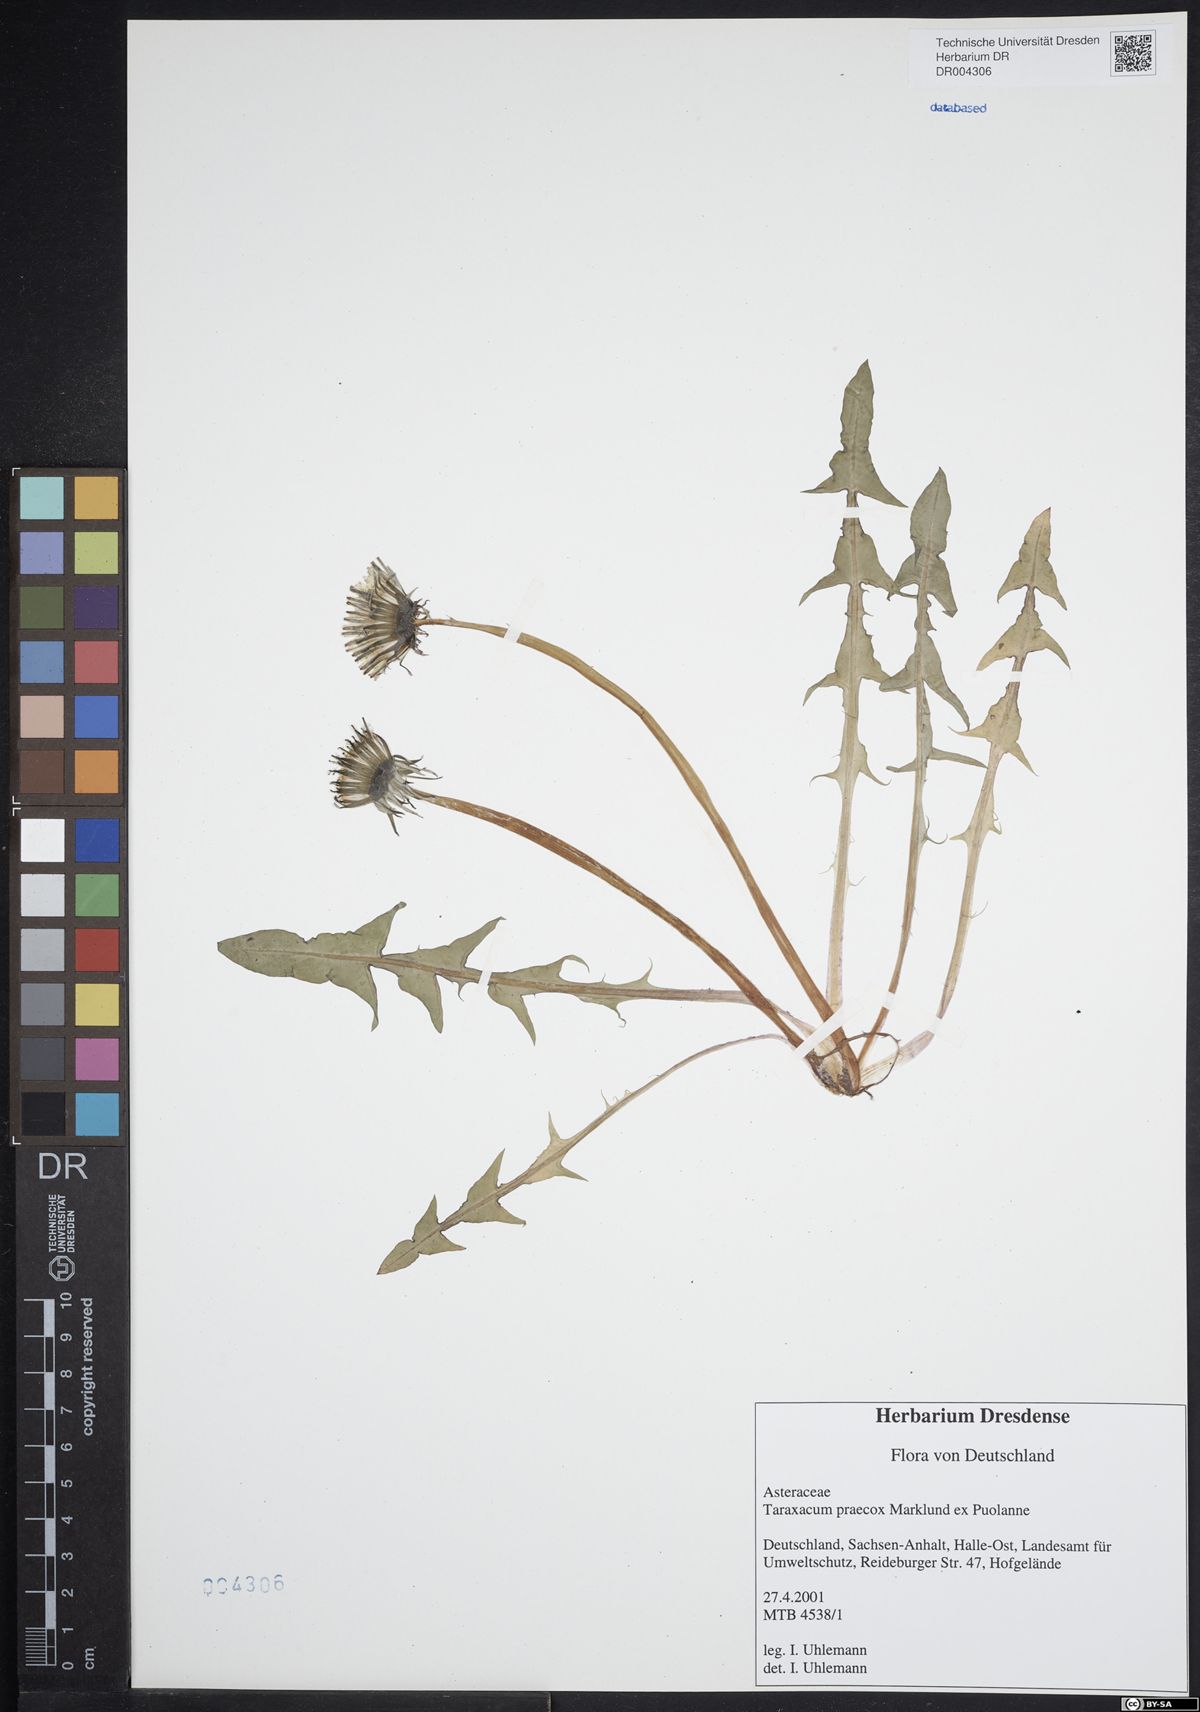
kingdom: Plantae
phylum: Tracheophyta
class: Magnoliopsida
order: Asterales
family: Asteraceae
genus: Taraxacum
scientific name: Taraxacum praecox
